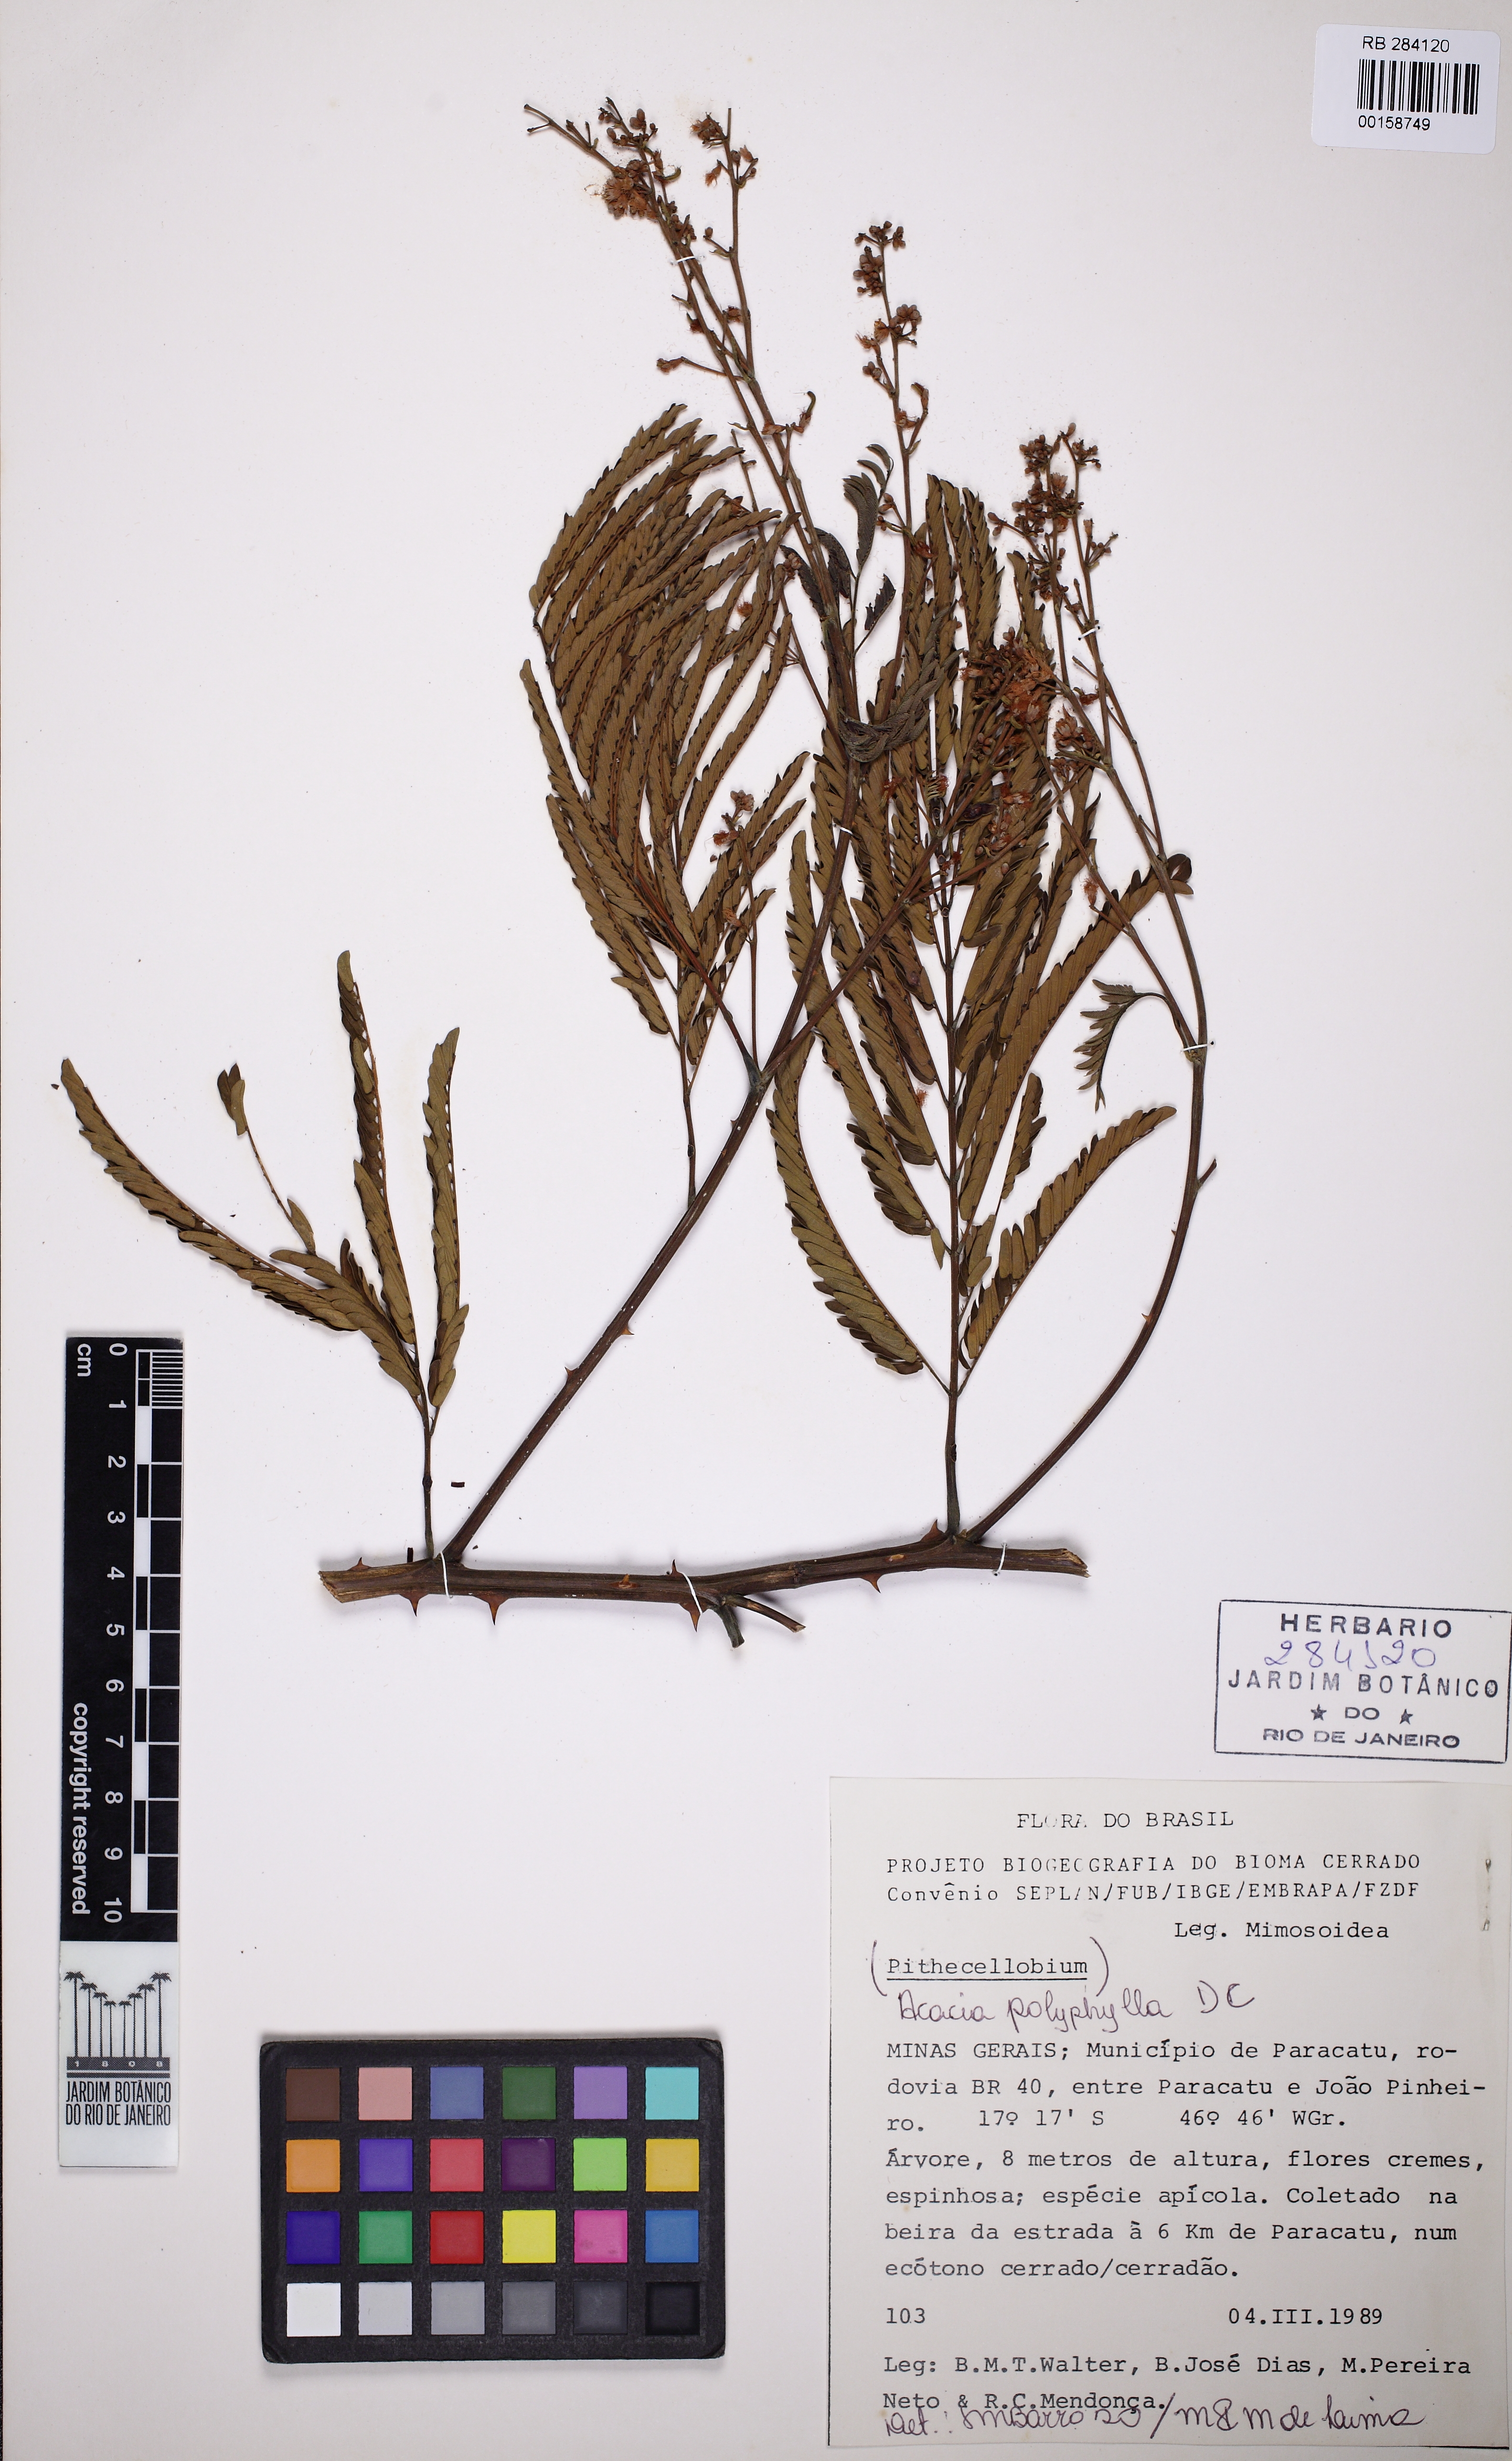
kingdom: Plantae
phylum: Tracheophyta
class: Magnoliopsida
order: Fabales
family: Fabaceae
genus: Senegalia
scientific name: Senegalia polyphylla
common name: White-tamarind
